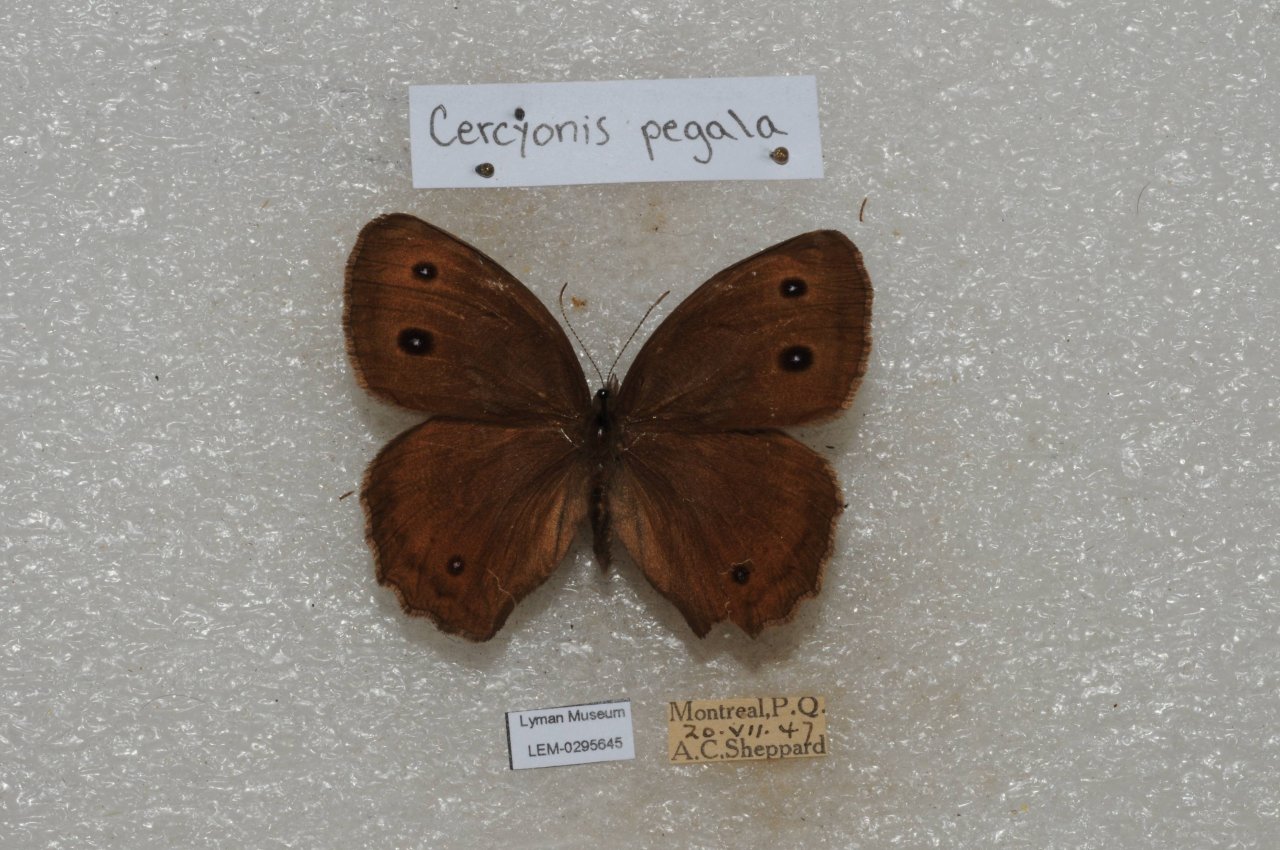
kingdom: Animalia
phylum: Arthropoda
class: Insecta
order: Lepidoptera
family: Nymphalidae
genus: Cercyonis
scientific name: Cercyonis pegala
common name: Common Wood-Nymph
